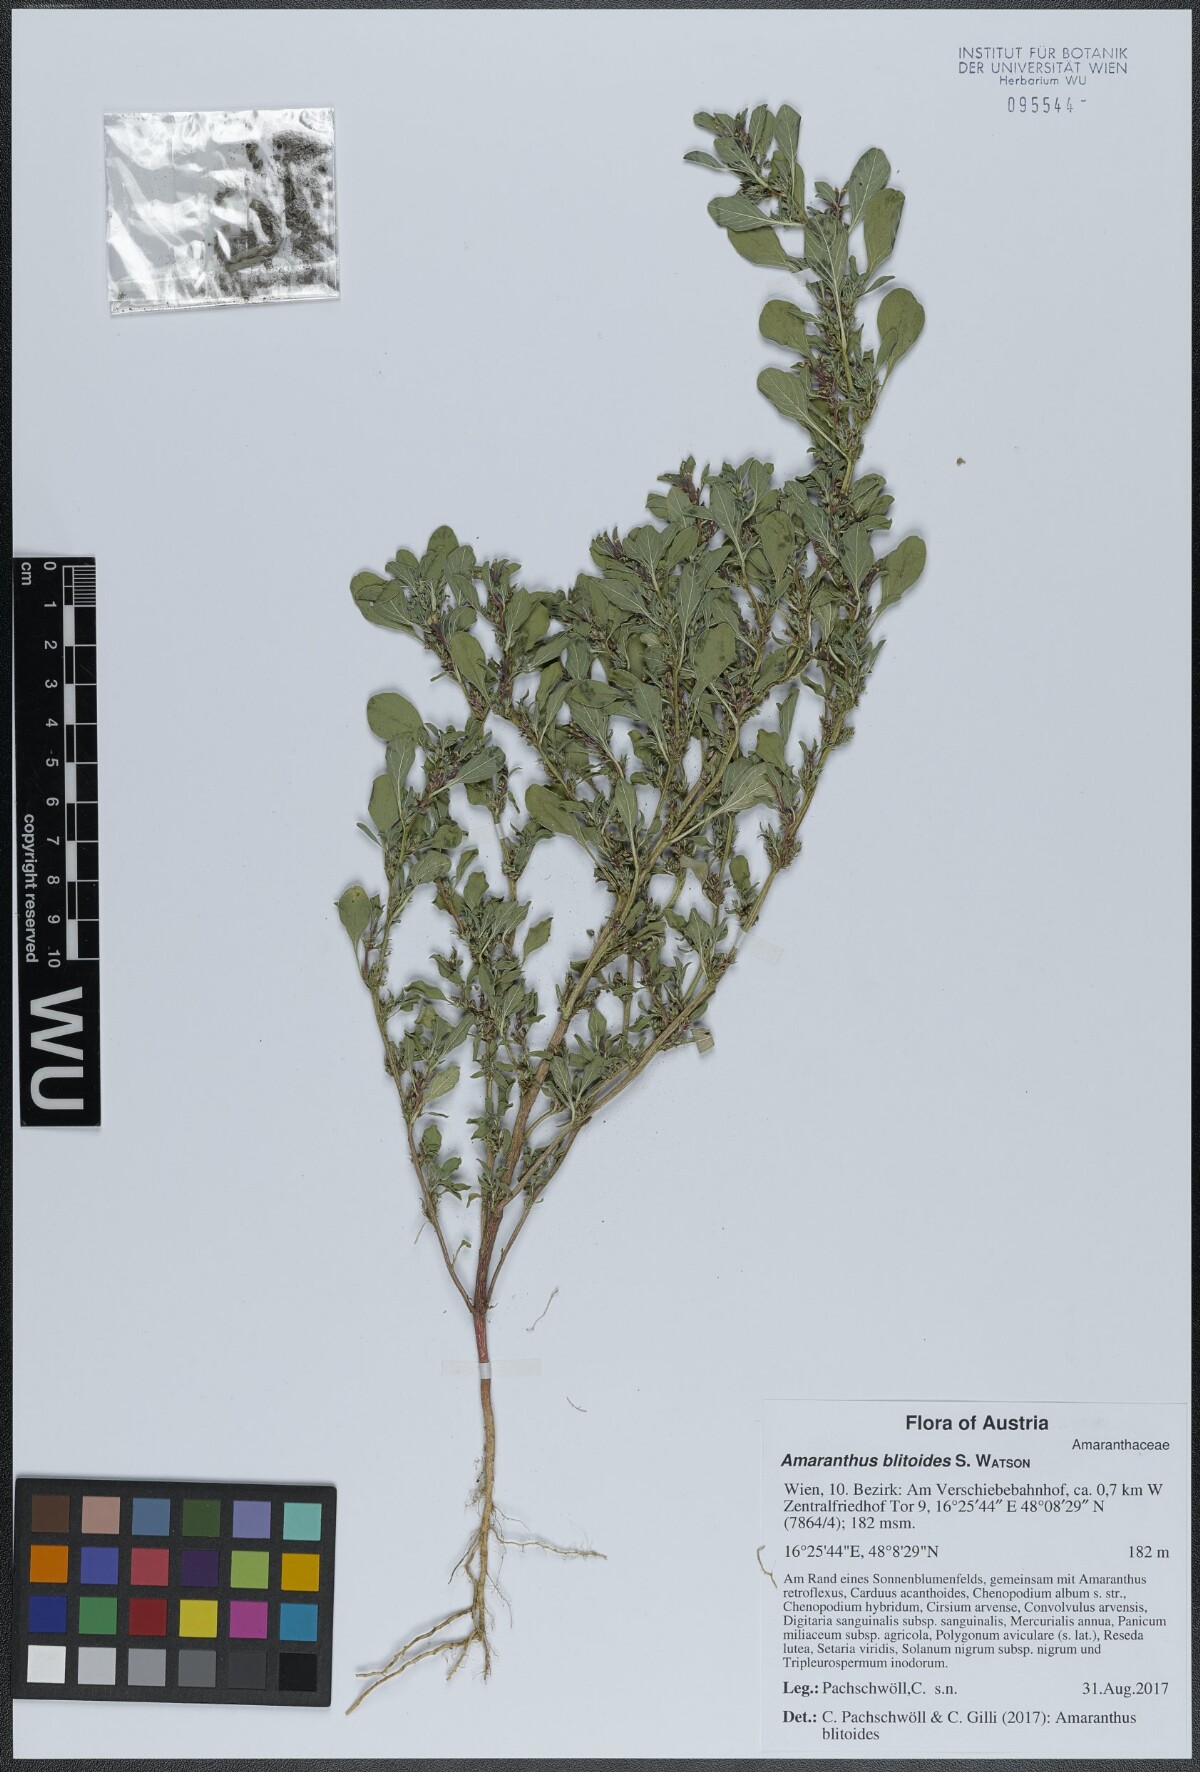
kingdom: Plantae
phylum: Tracheophyta
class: Magnoliopsida
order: Caryophyllales
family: Amaranthaceae
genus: Amaranthus
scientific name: Amaranthus blitoides
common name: Prostrate pigweed
